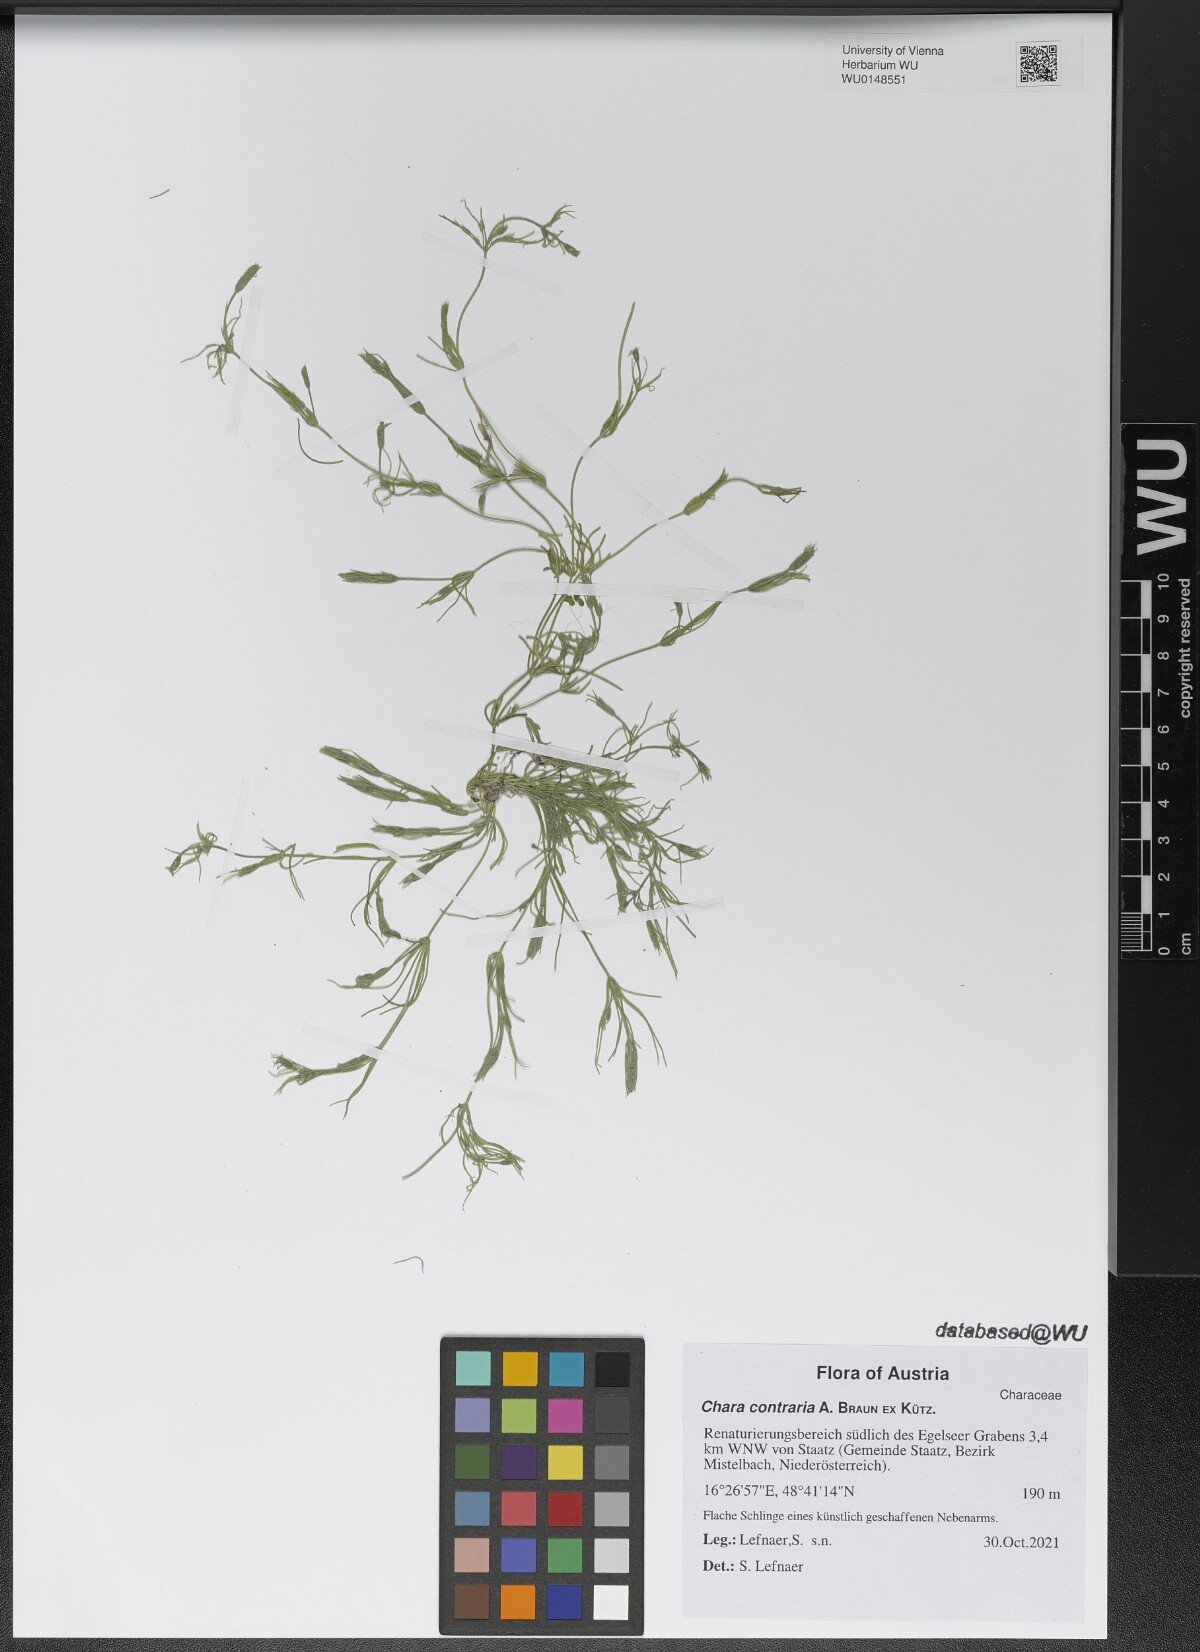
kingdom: Plantae
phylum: Charophyta
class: Charophyceae
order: Charales
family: Characeae
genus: Chara
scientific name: Chara contraria
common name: Opposite stonewort
